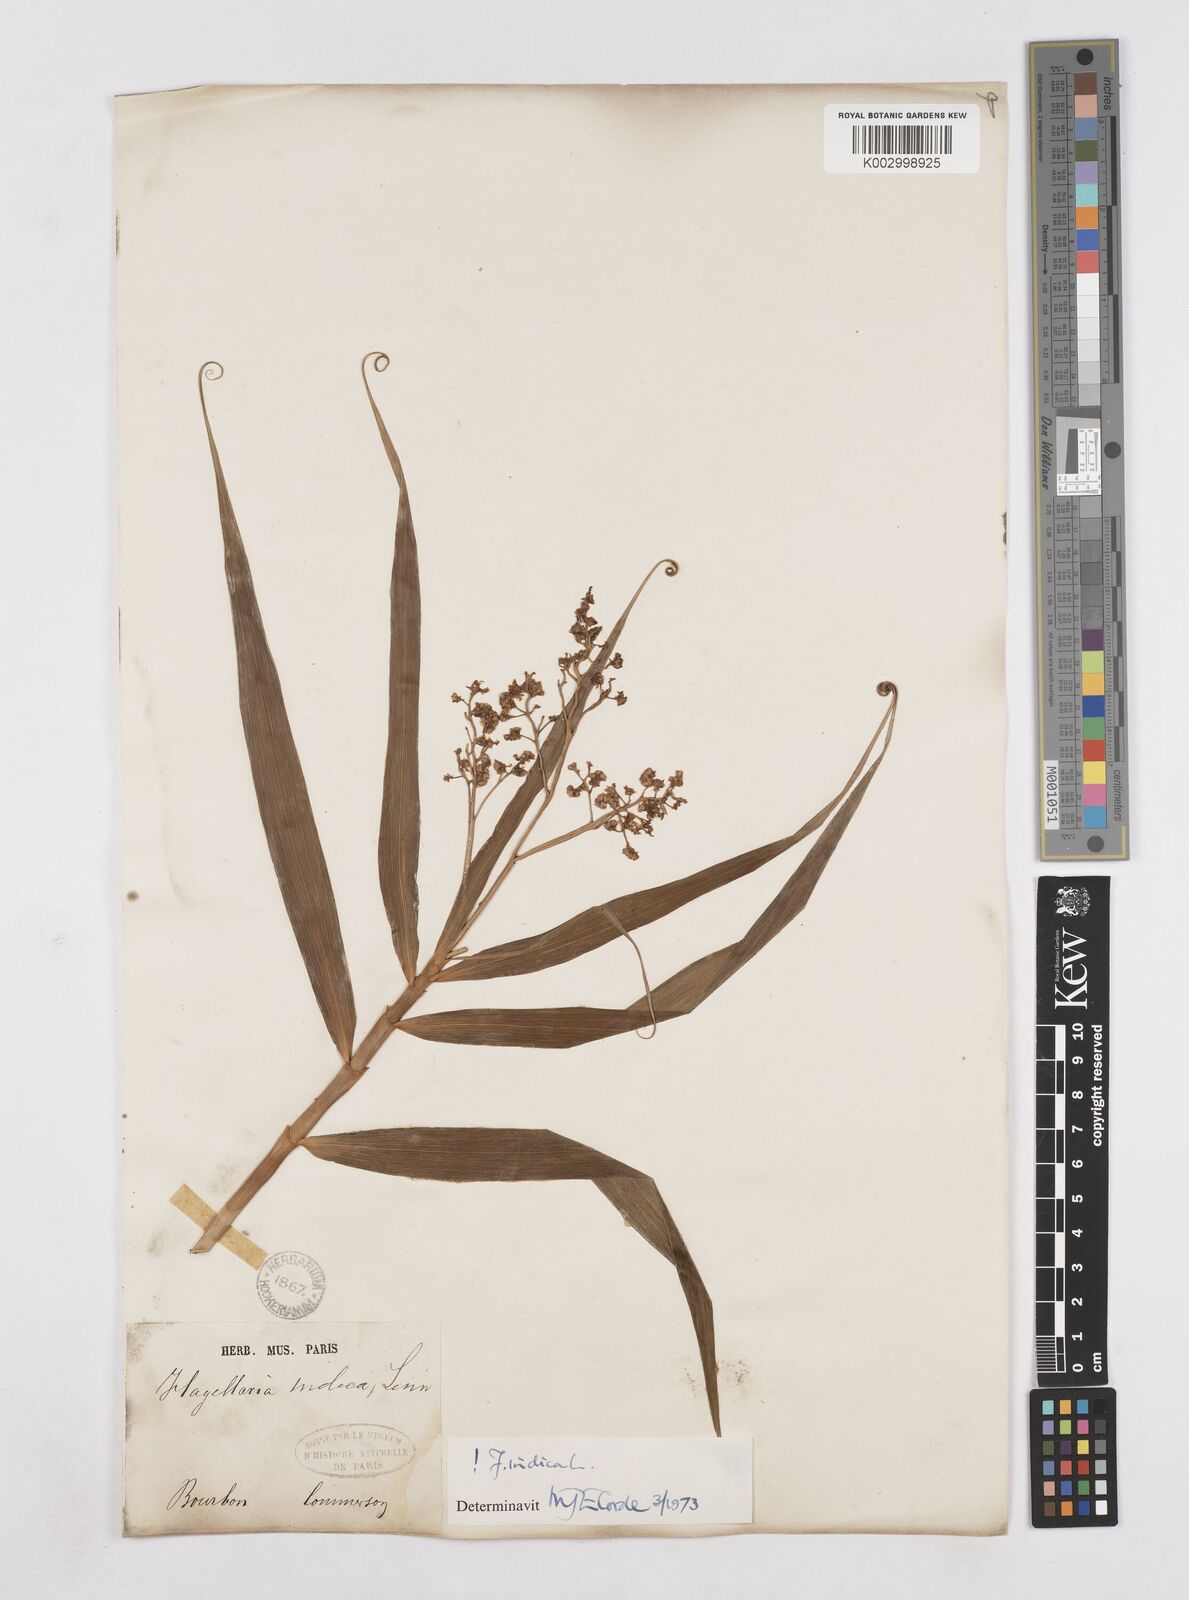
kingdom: Plantae
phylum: Tracheophyta
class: Liliopsida
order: Poales
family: Flagellariaceae
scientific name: Flagellariaceae
